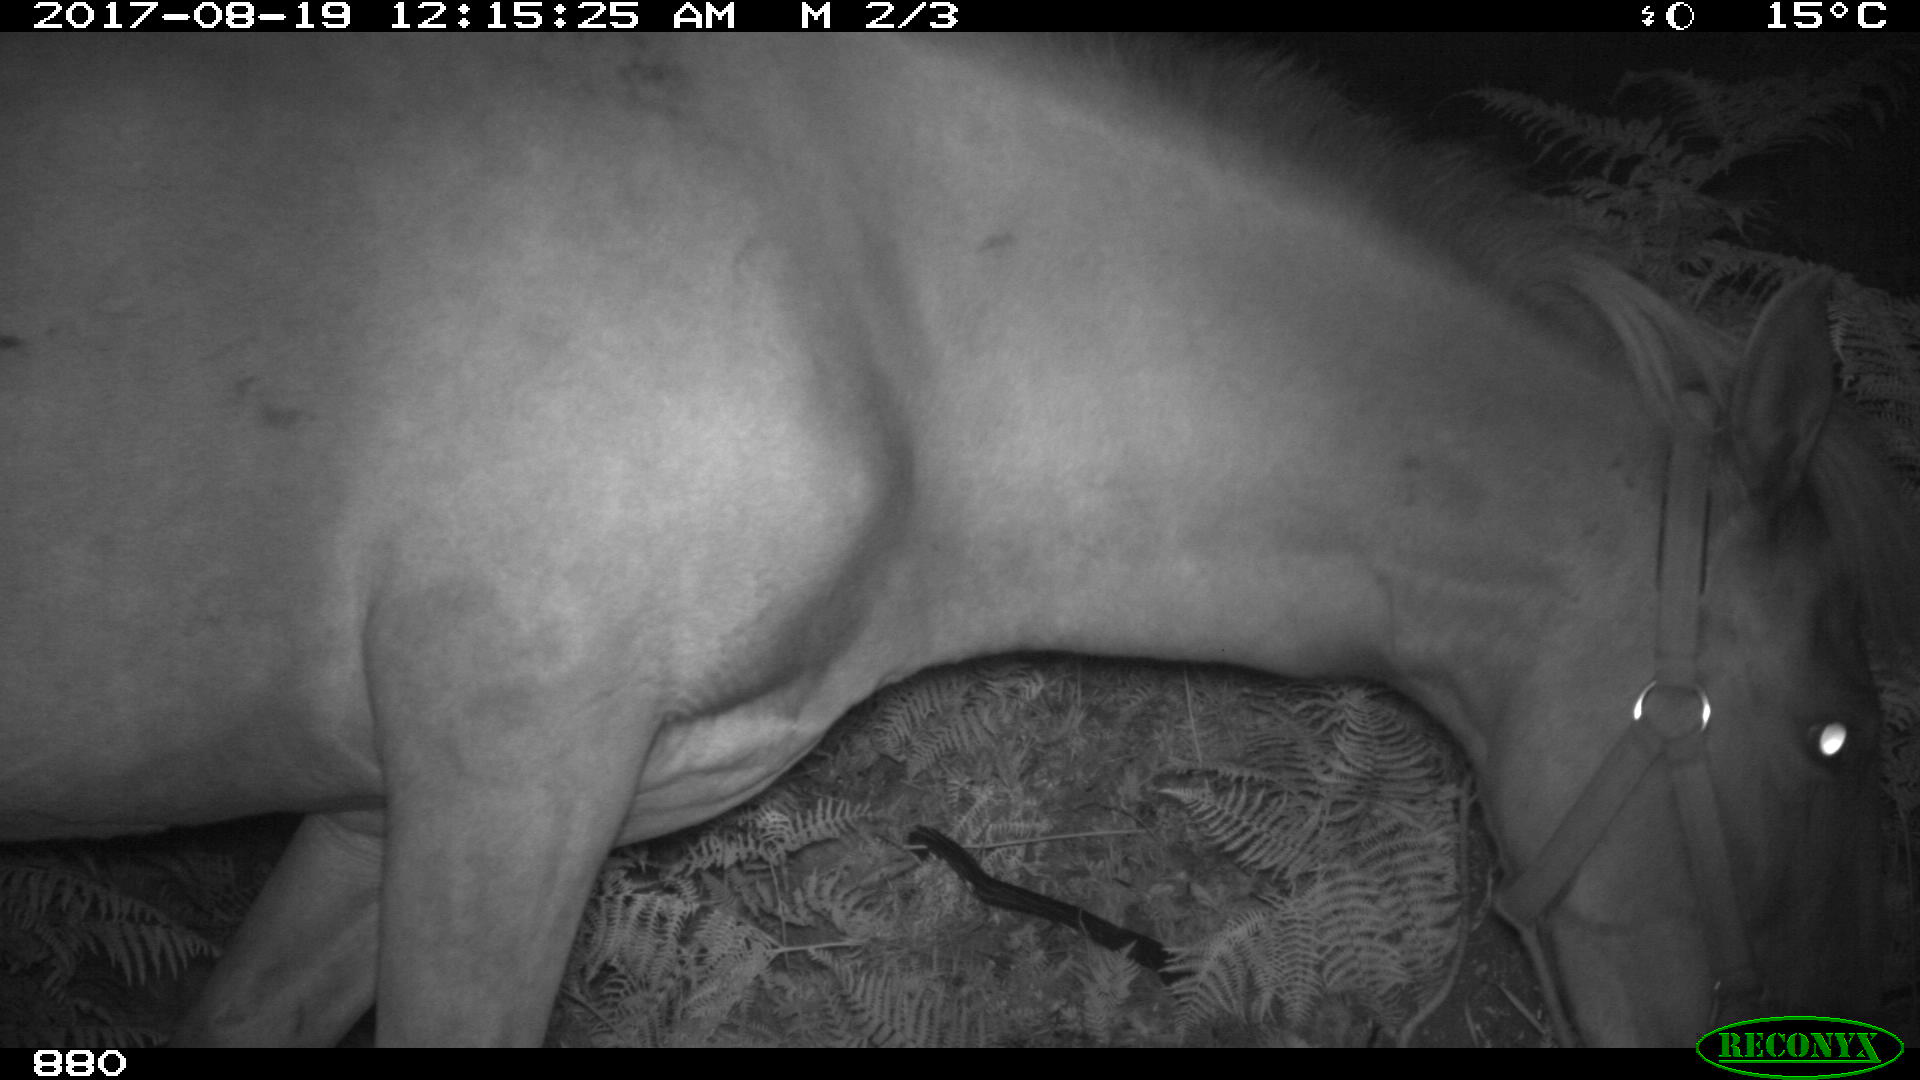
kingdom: Animalia
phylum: Chordata
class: Mammalia
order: Perissodactyla
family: Equidae
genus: Equus
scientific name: Equus caballus
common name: Horse
